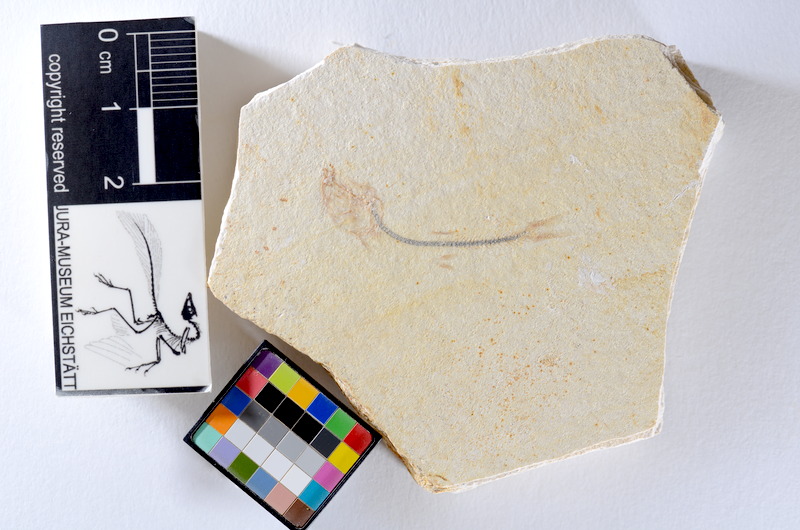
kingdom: Animalia
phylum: Chordata
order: Salmoniformes
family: Orthogonikleithridae
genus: Orthogonikleithrus
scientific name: Orthogonikleithrus hoelli
